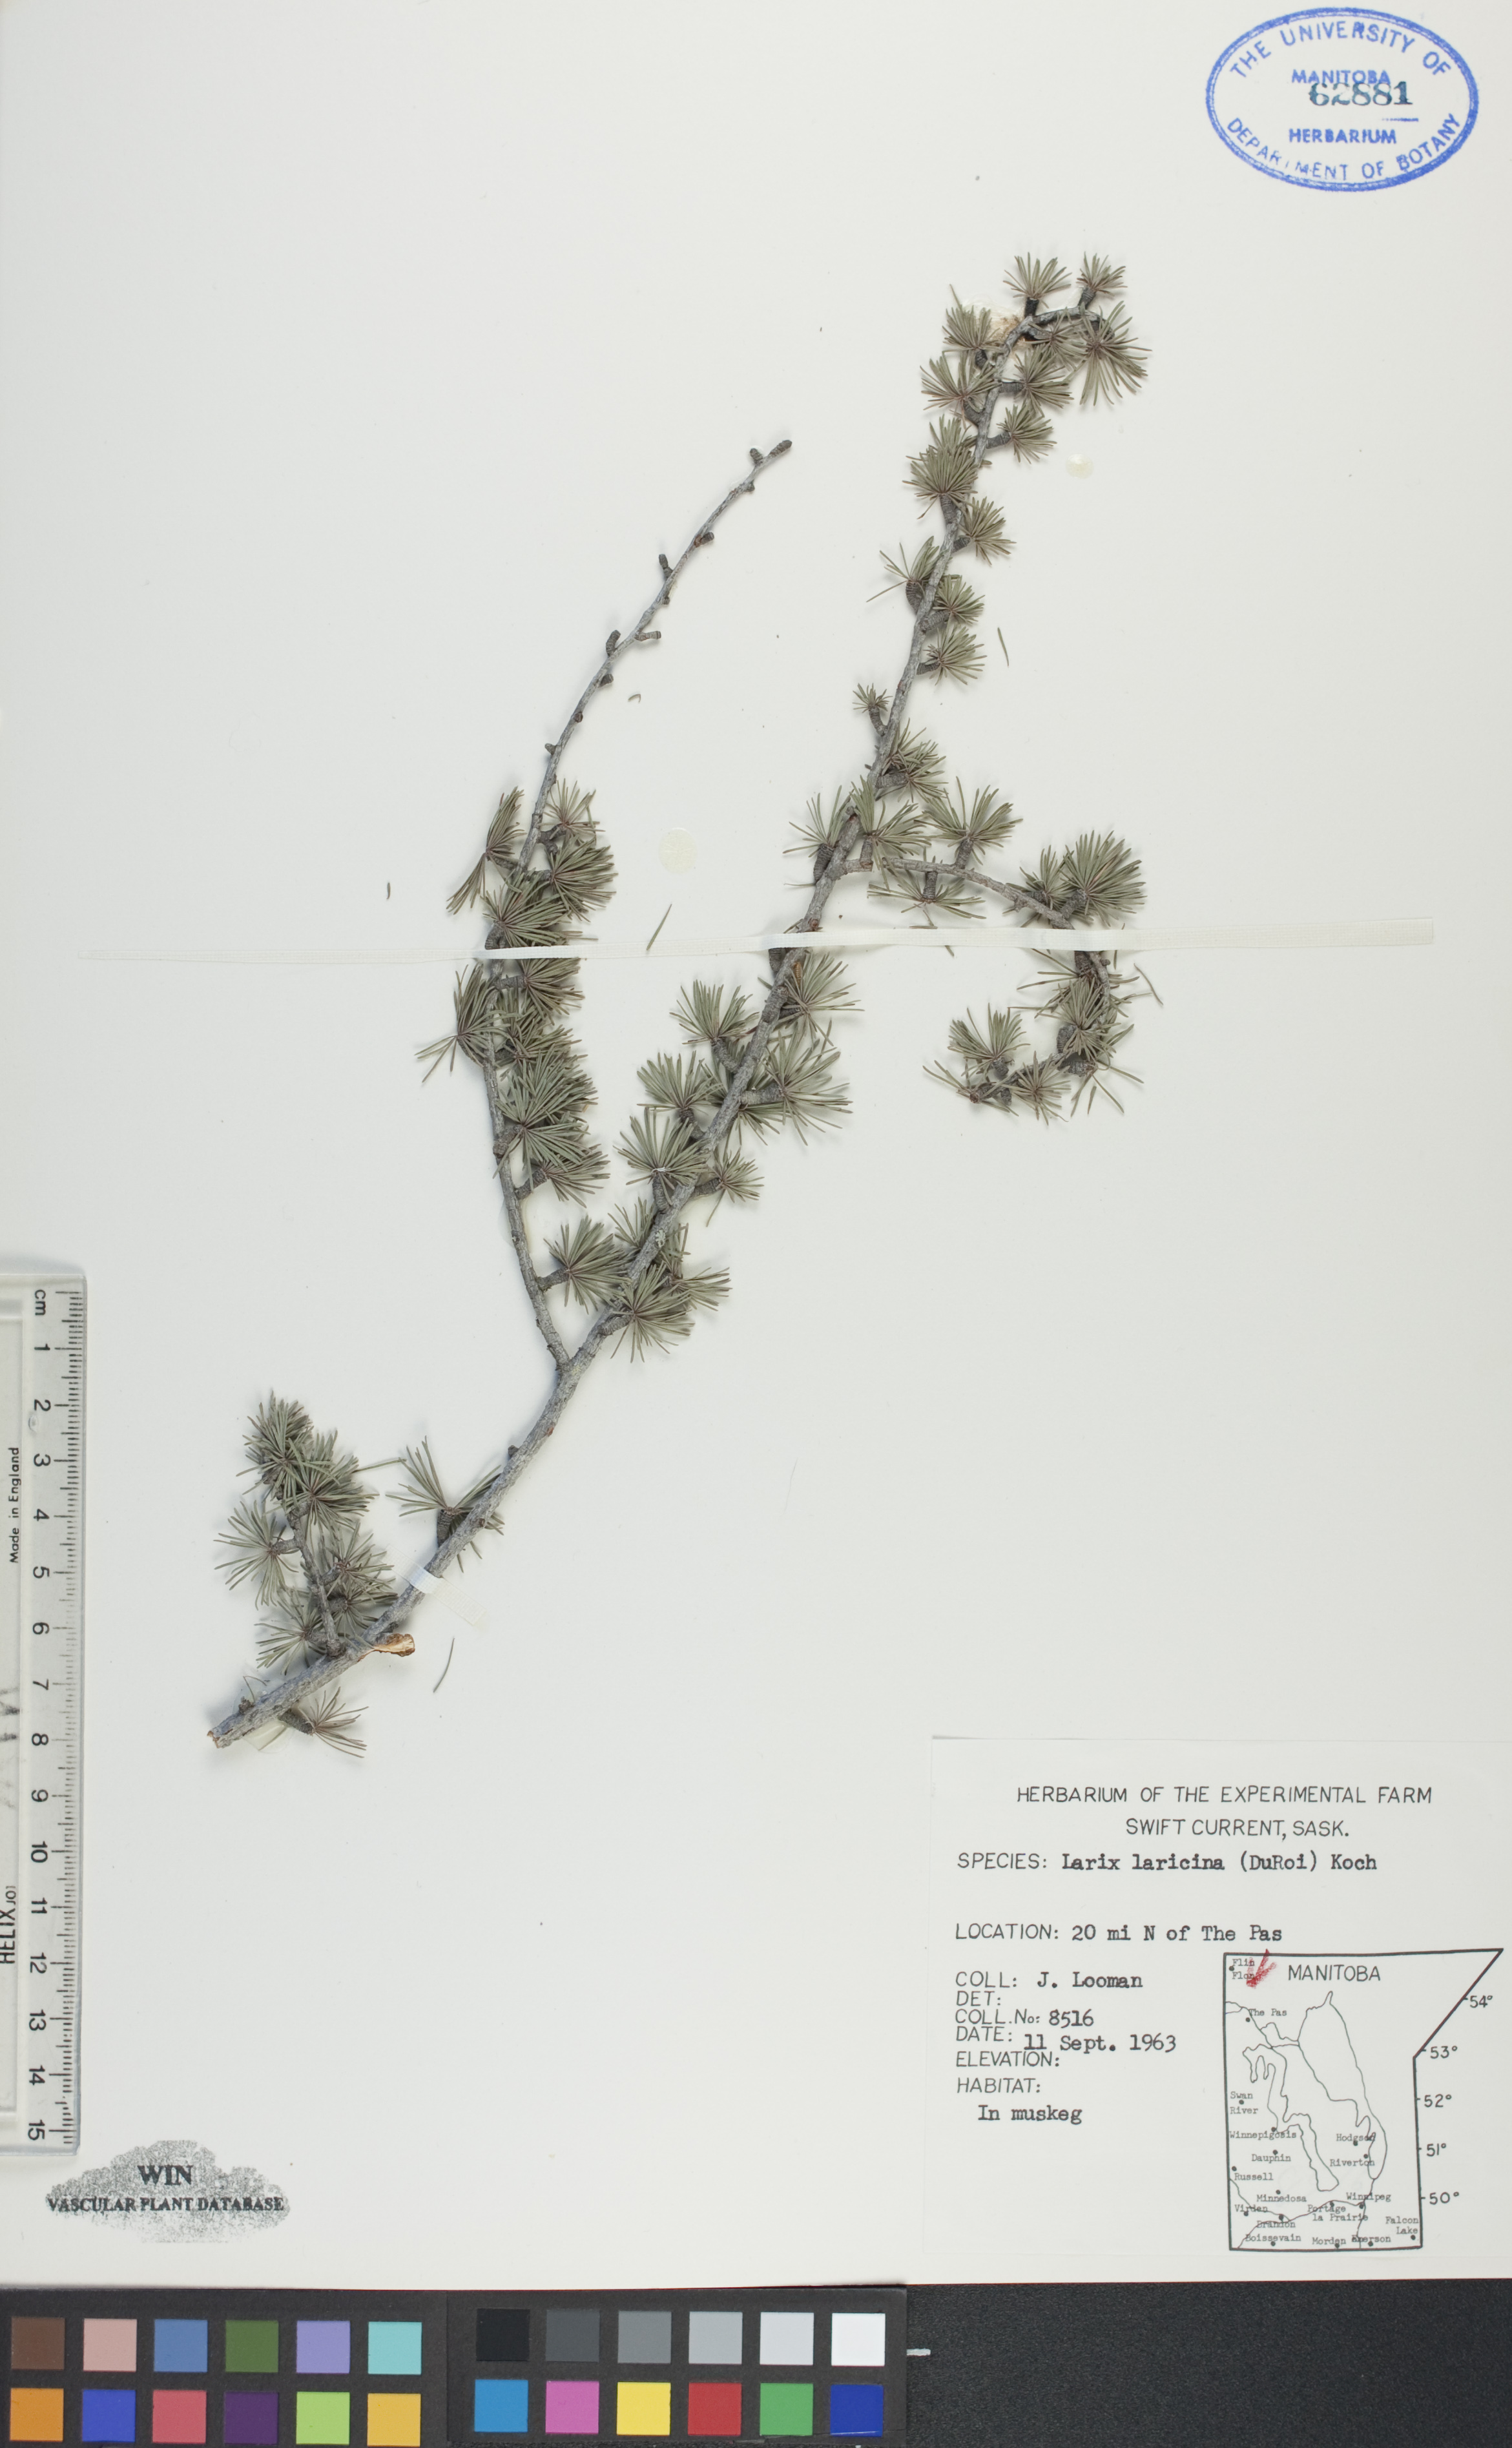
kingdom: Plantae
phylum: Tracheophyta
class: Pinopsida
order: Pinales
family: Pinaceae
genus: Larix
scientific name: Larix laricina
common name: American larch
